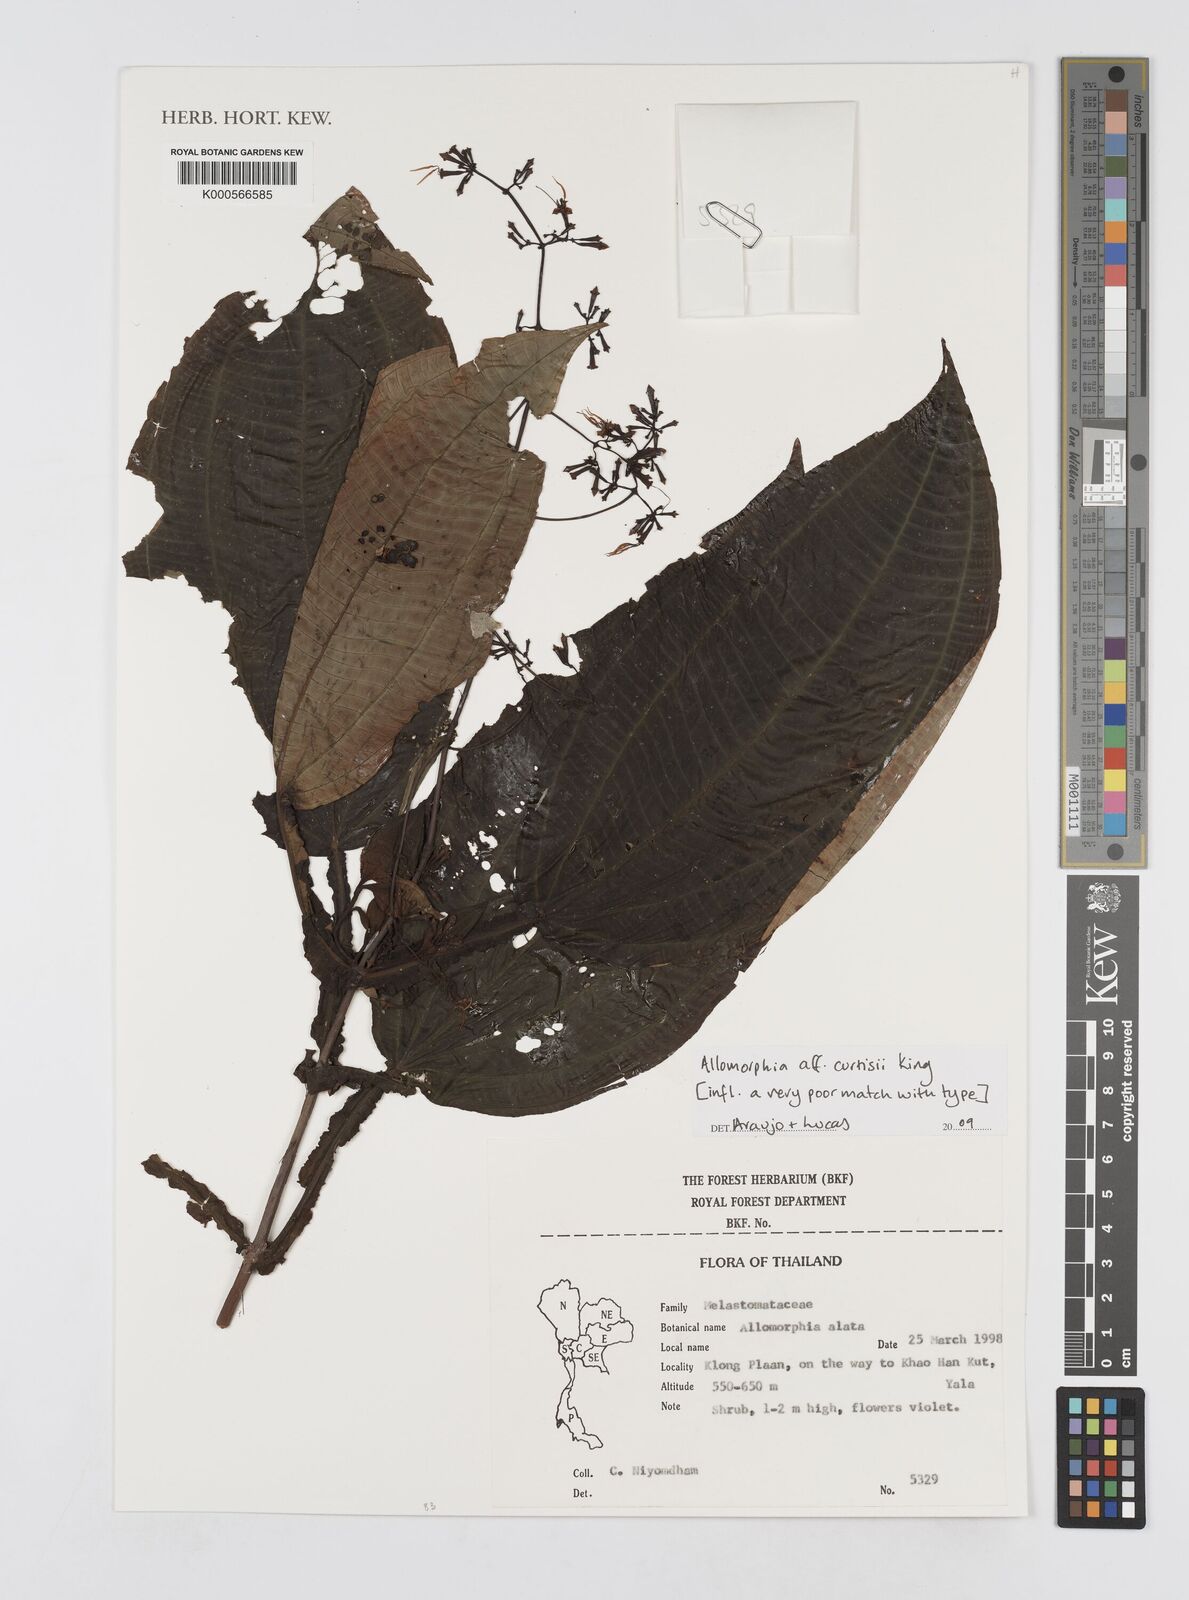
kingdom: Plantae
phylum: Tracheophyta
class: Magnoliopsida
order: Myrtales
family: Melastomataceae
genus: Allomorphia
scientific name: Allomorphia
